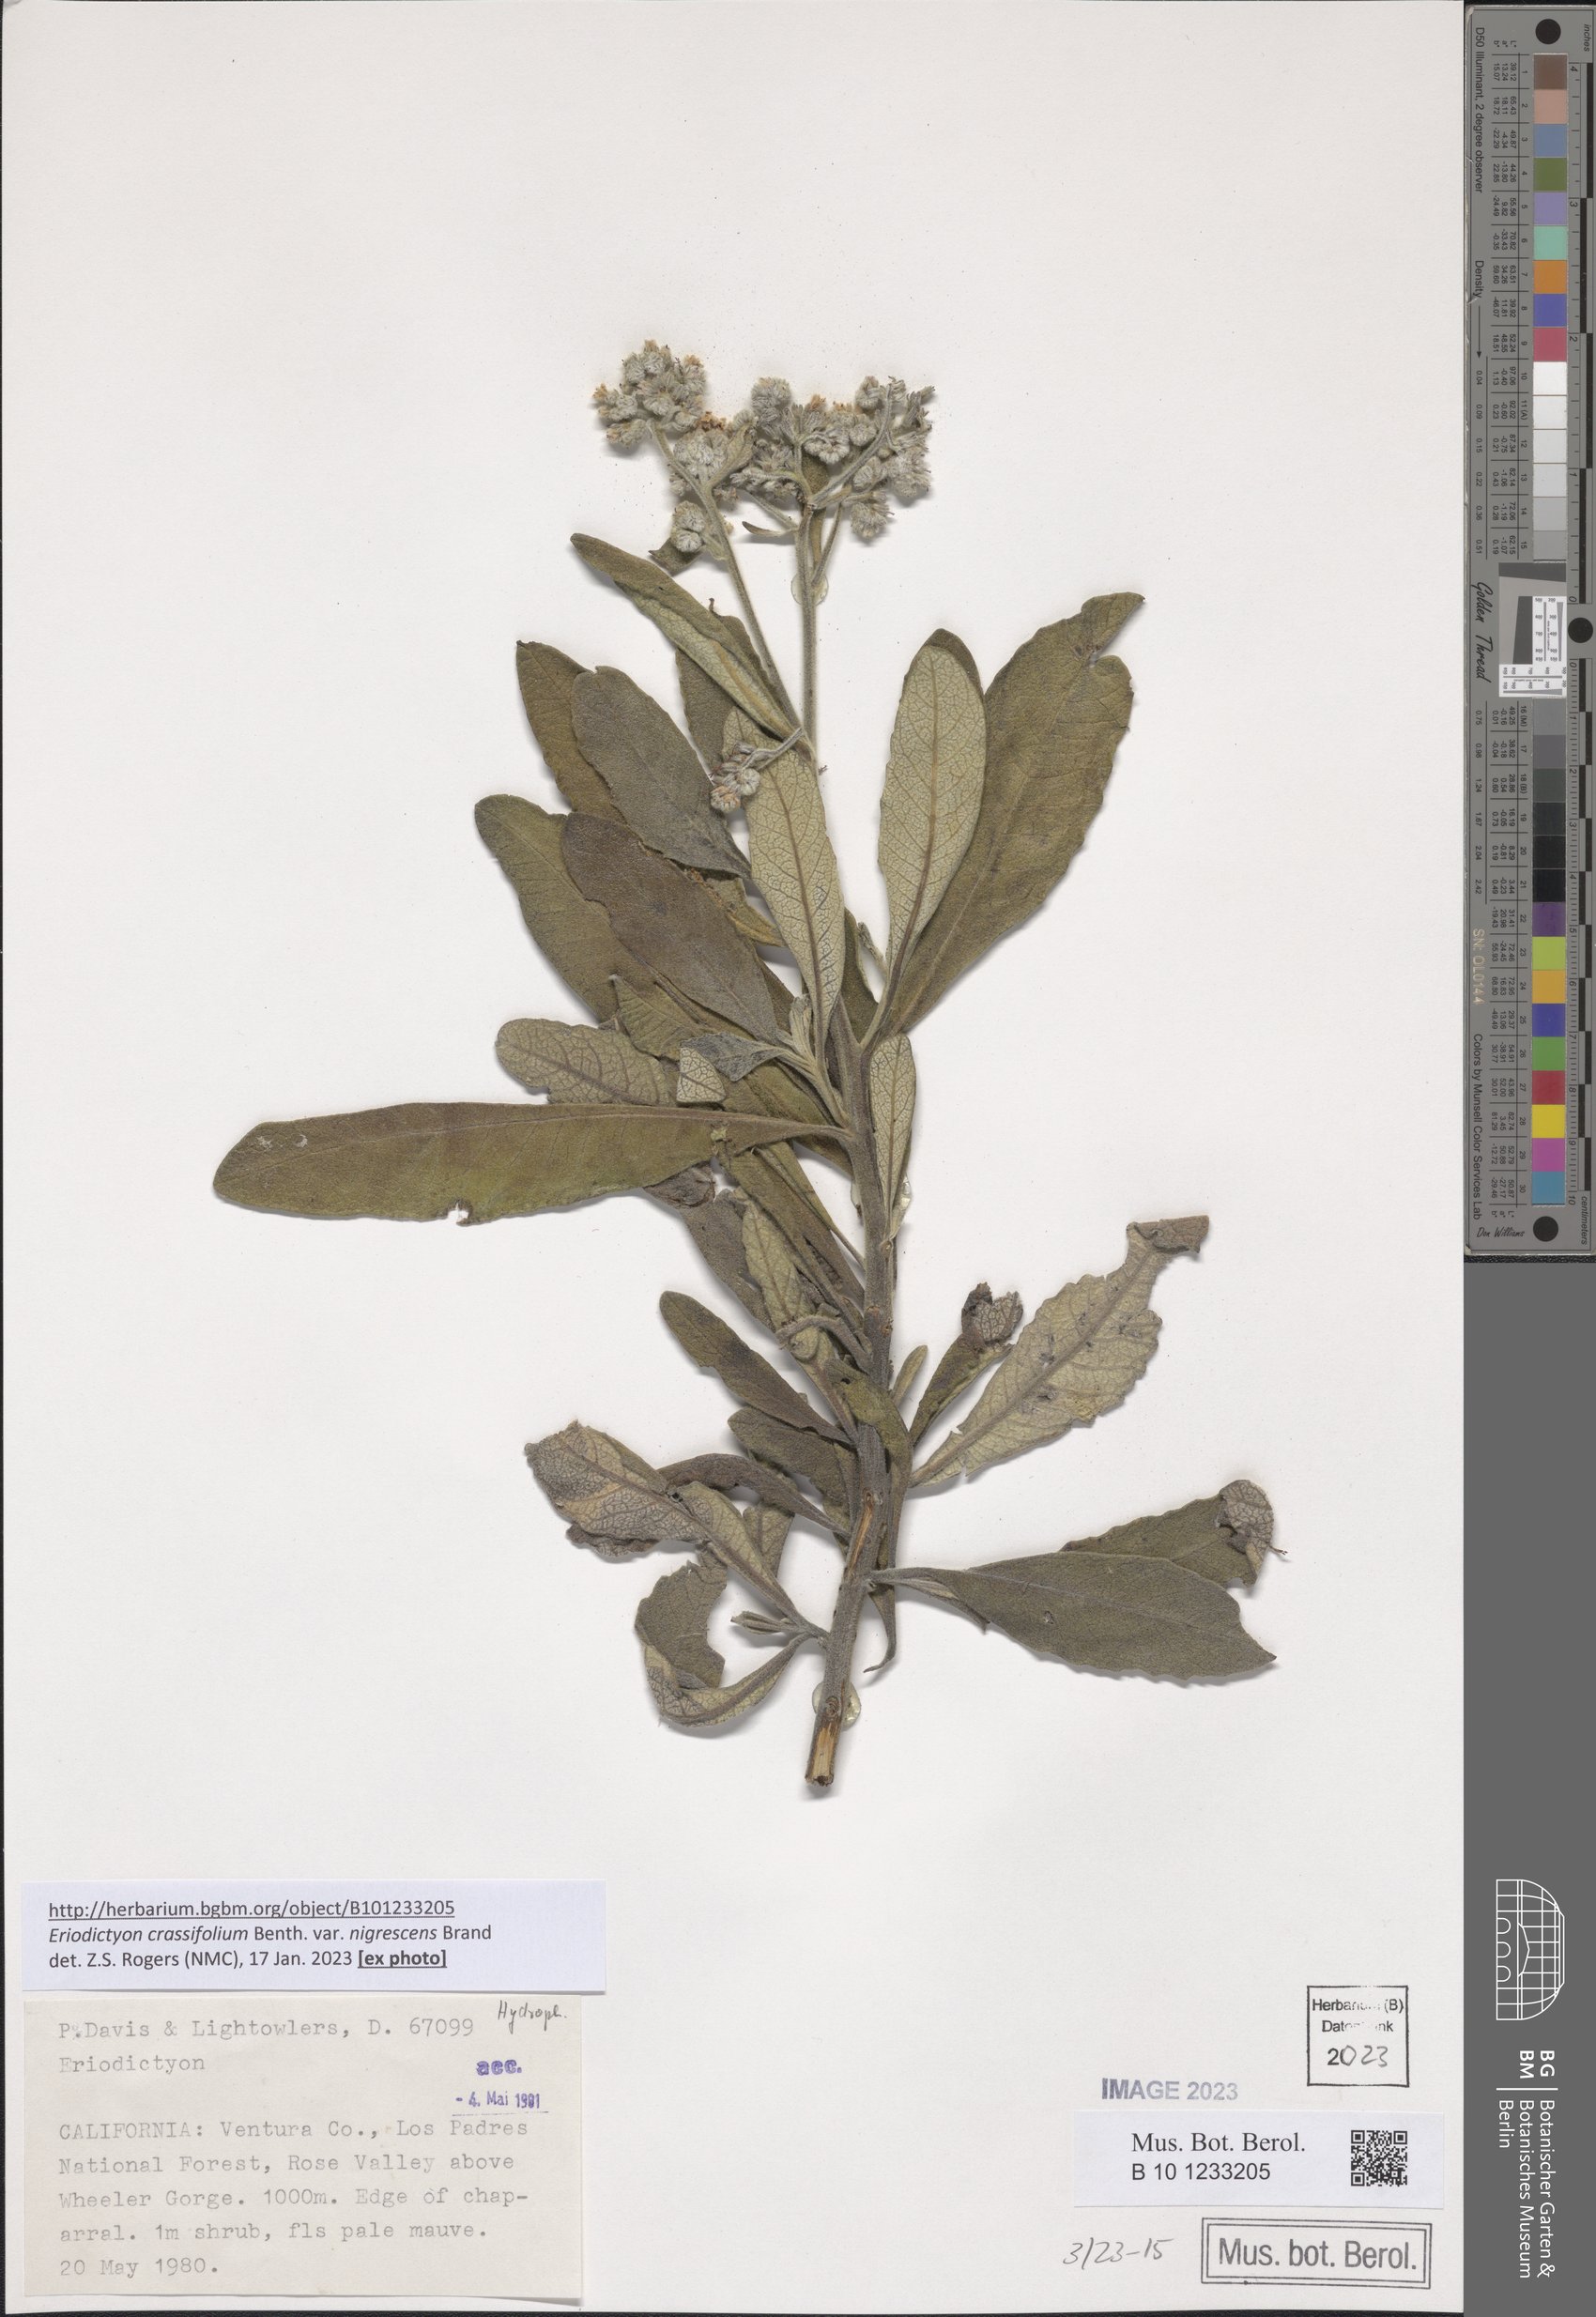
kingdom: Plantae
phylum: Tracheophyta
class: Magnoliopsida
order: Boraginales
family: Namaceae
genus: Eriodictyon
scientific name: Eriodictyon crassifolium
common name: Thick-leaf yerba-santa
